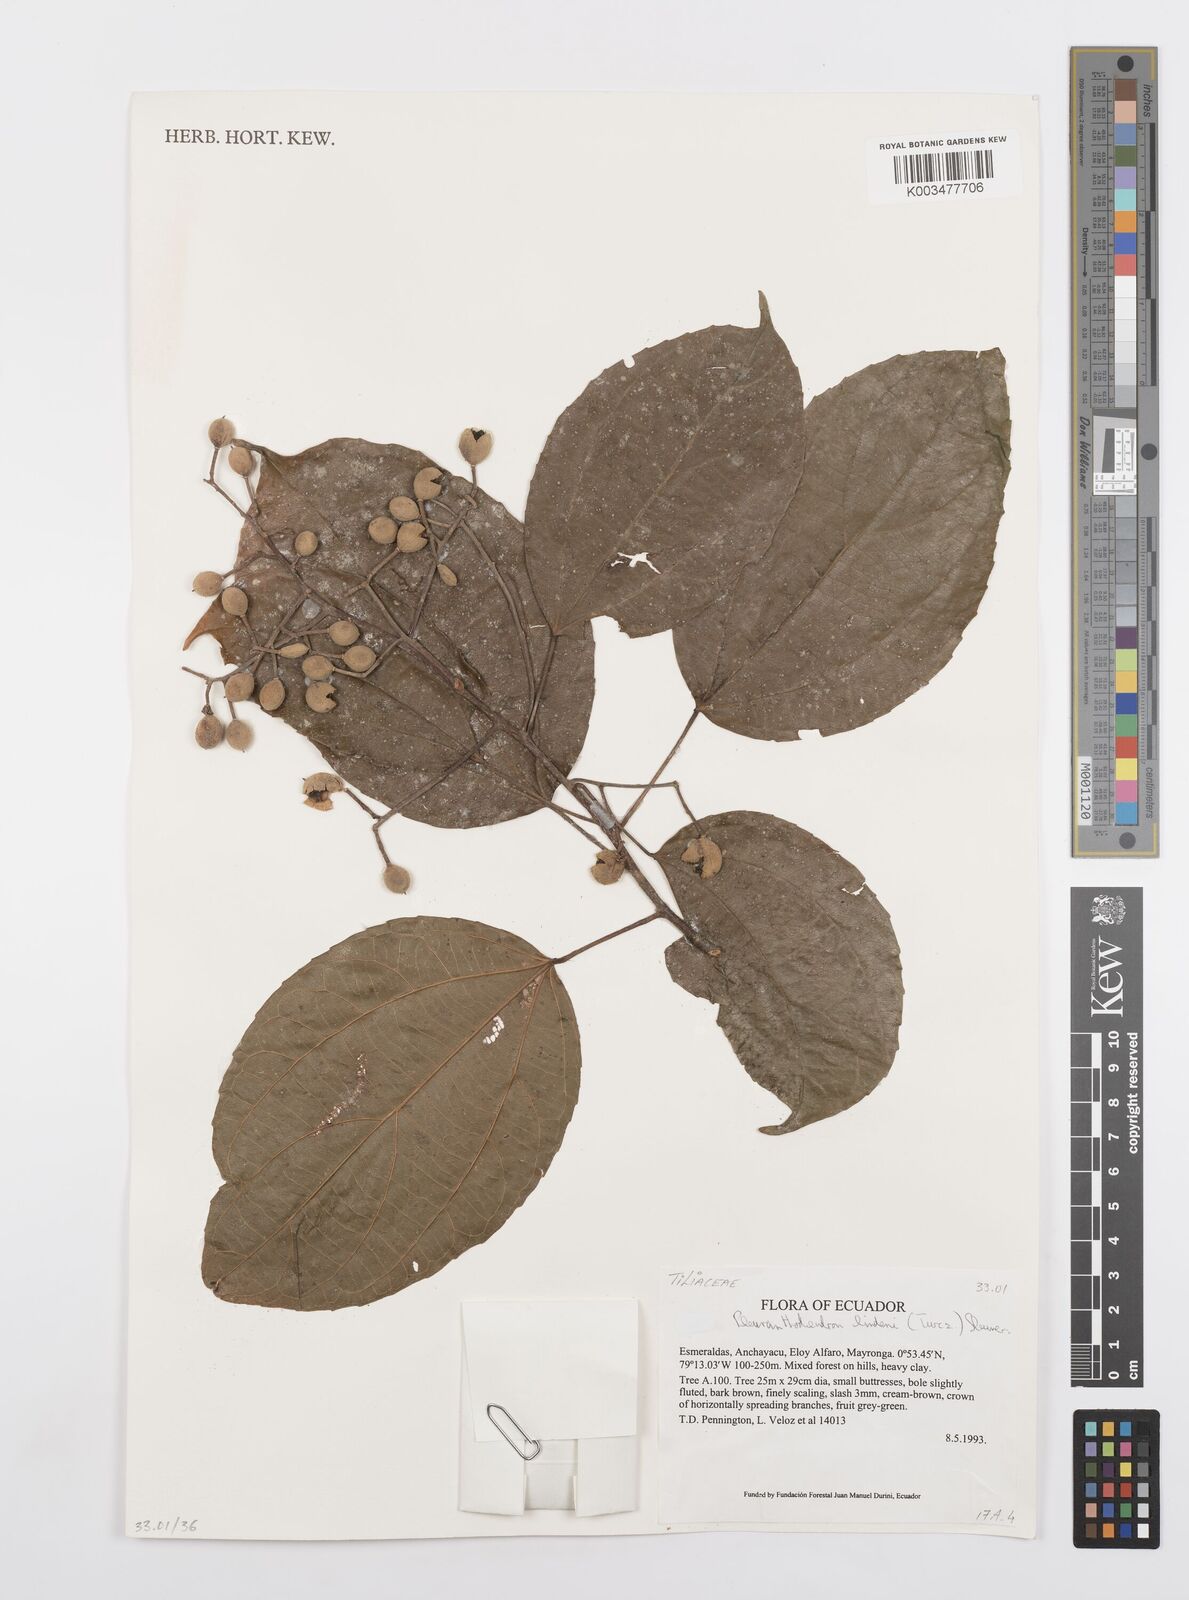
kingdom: Plantae
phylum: Tracheophyta
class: Magnoliopsida
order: Malpighiales
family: Salicaceae
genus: Pleuranthodendron
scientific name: Pleuranthodendron lindenii
